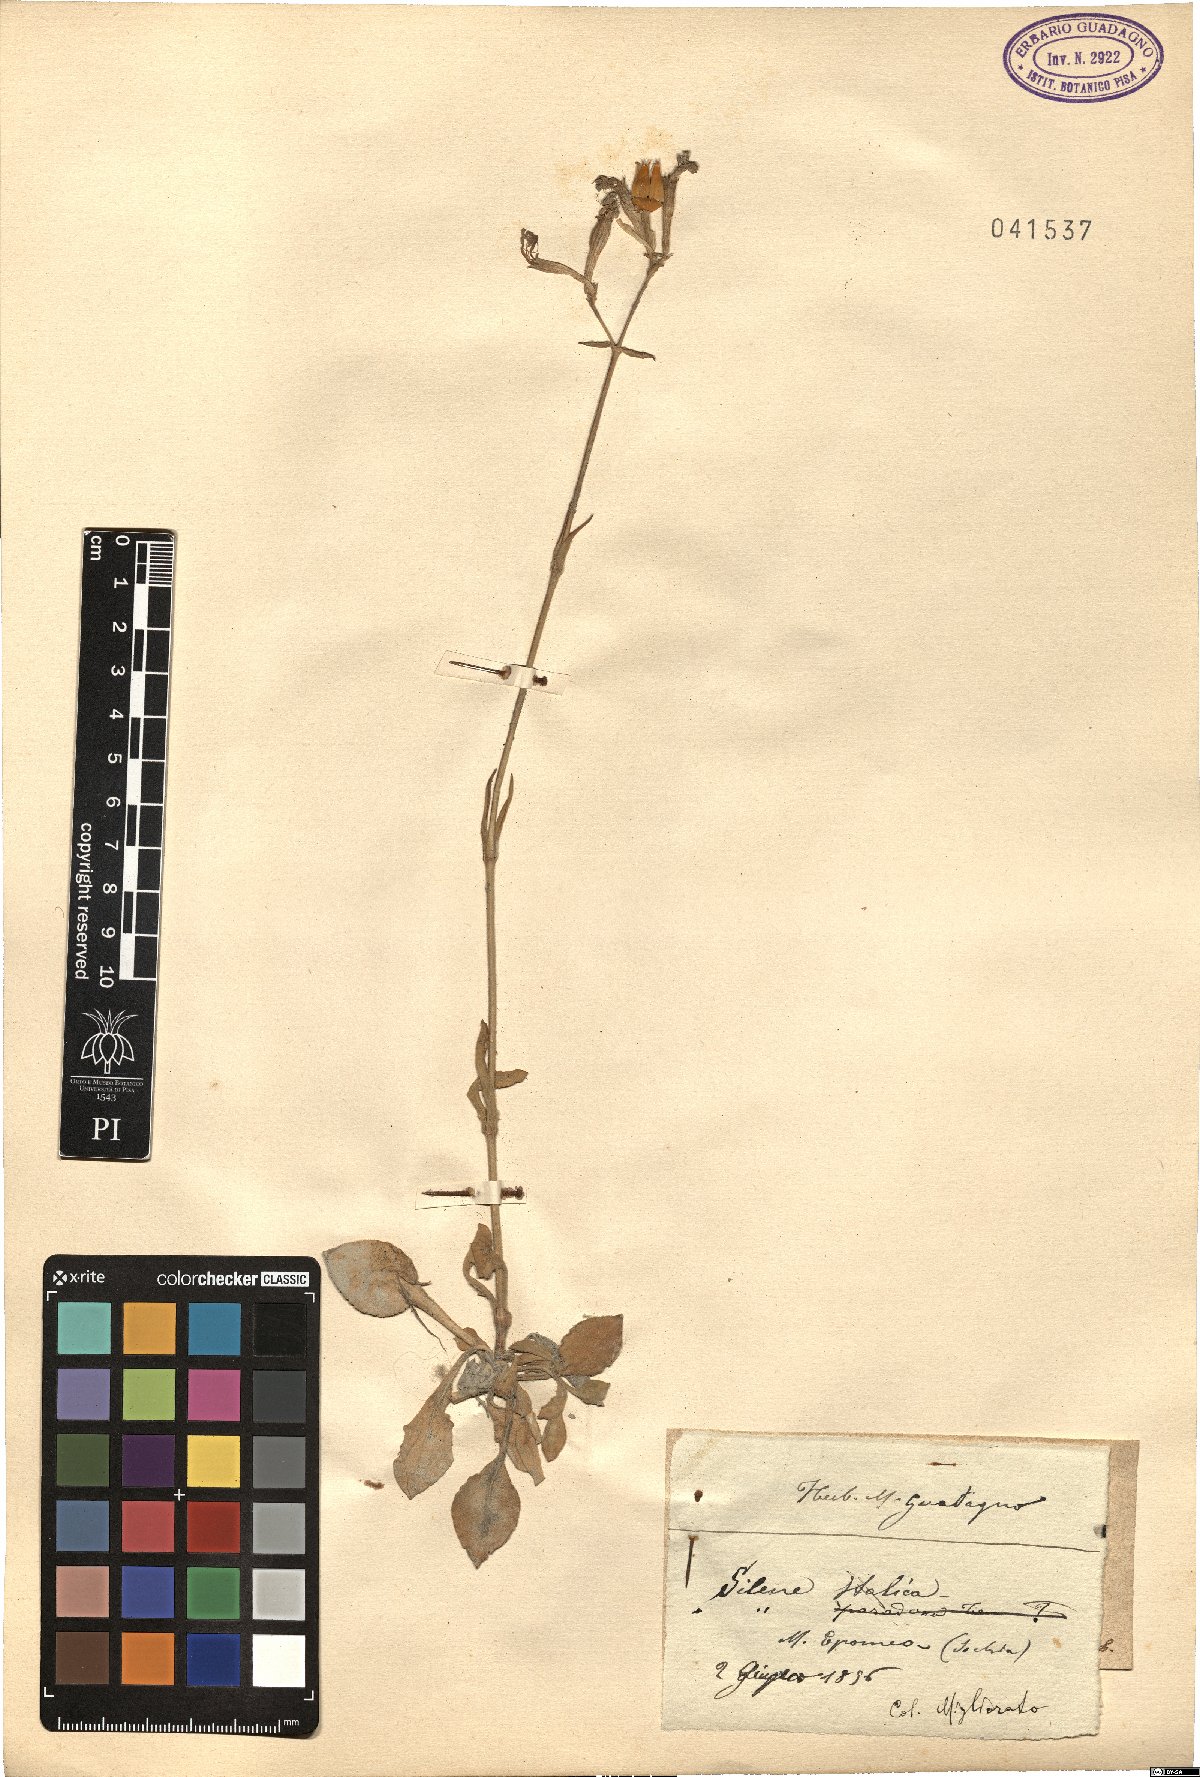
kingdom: Plantae
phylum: Tracheophyta
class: Magnoliopsida
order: Caryophyllales
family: Caryophyllaceae
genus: Silene
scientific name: Silene italica
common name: Italian catchfly
